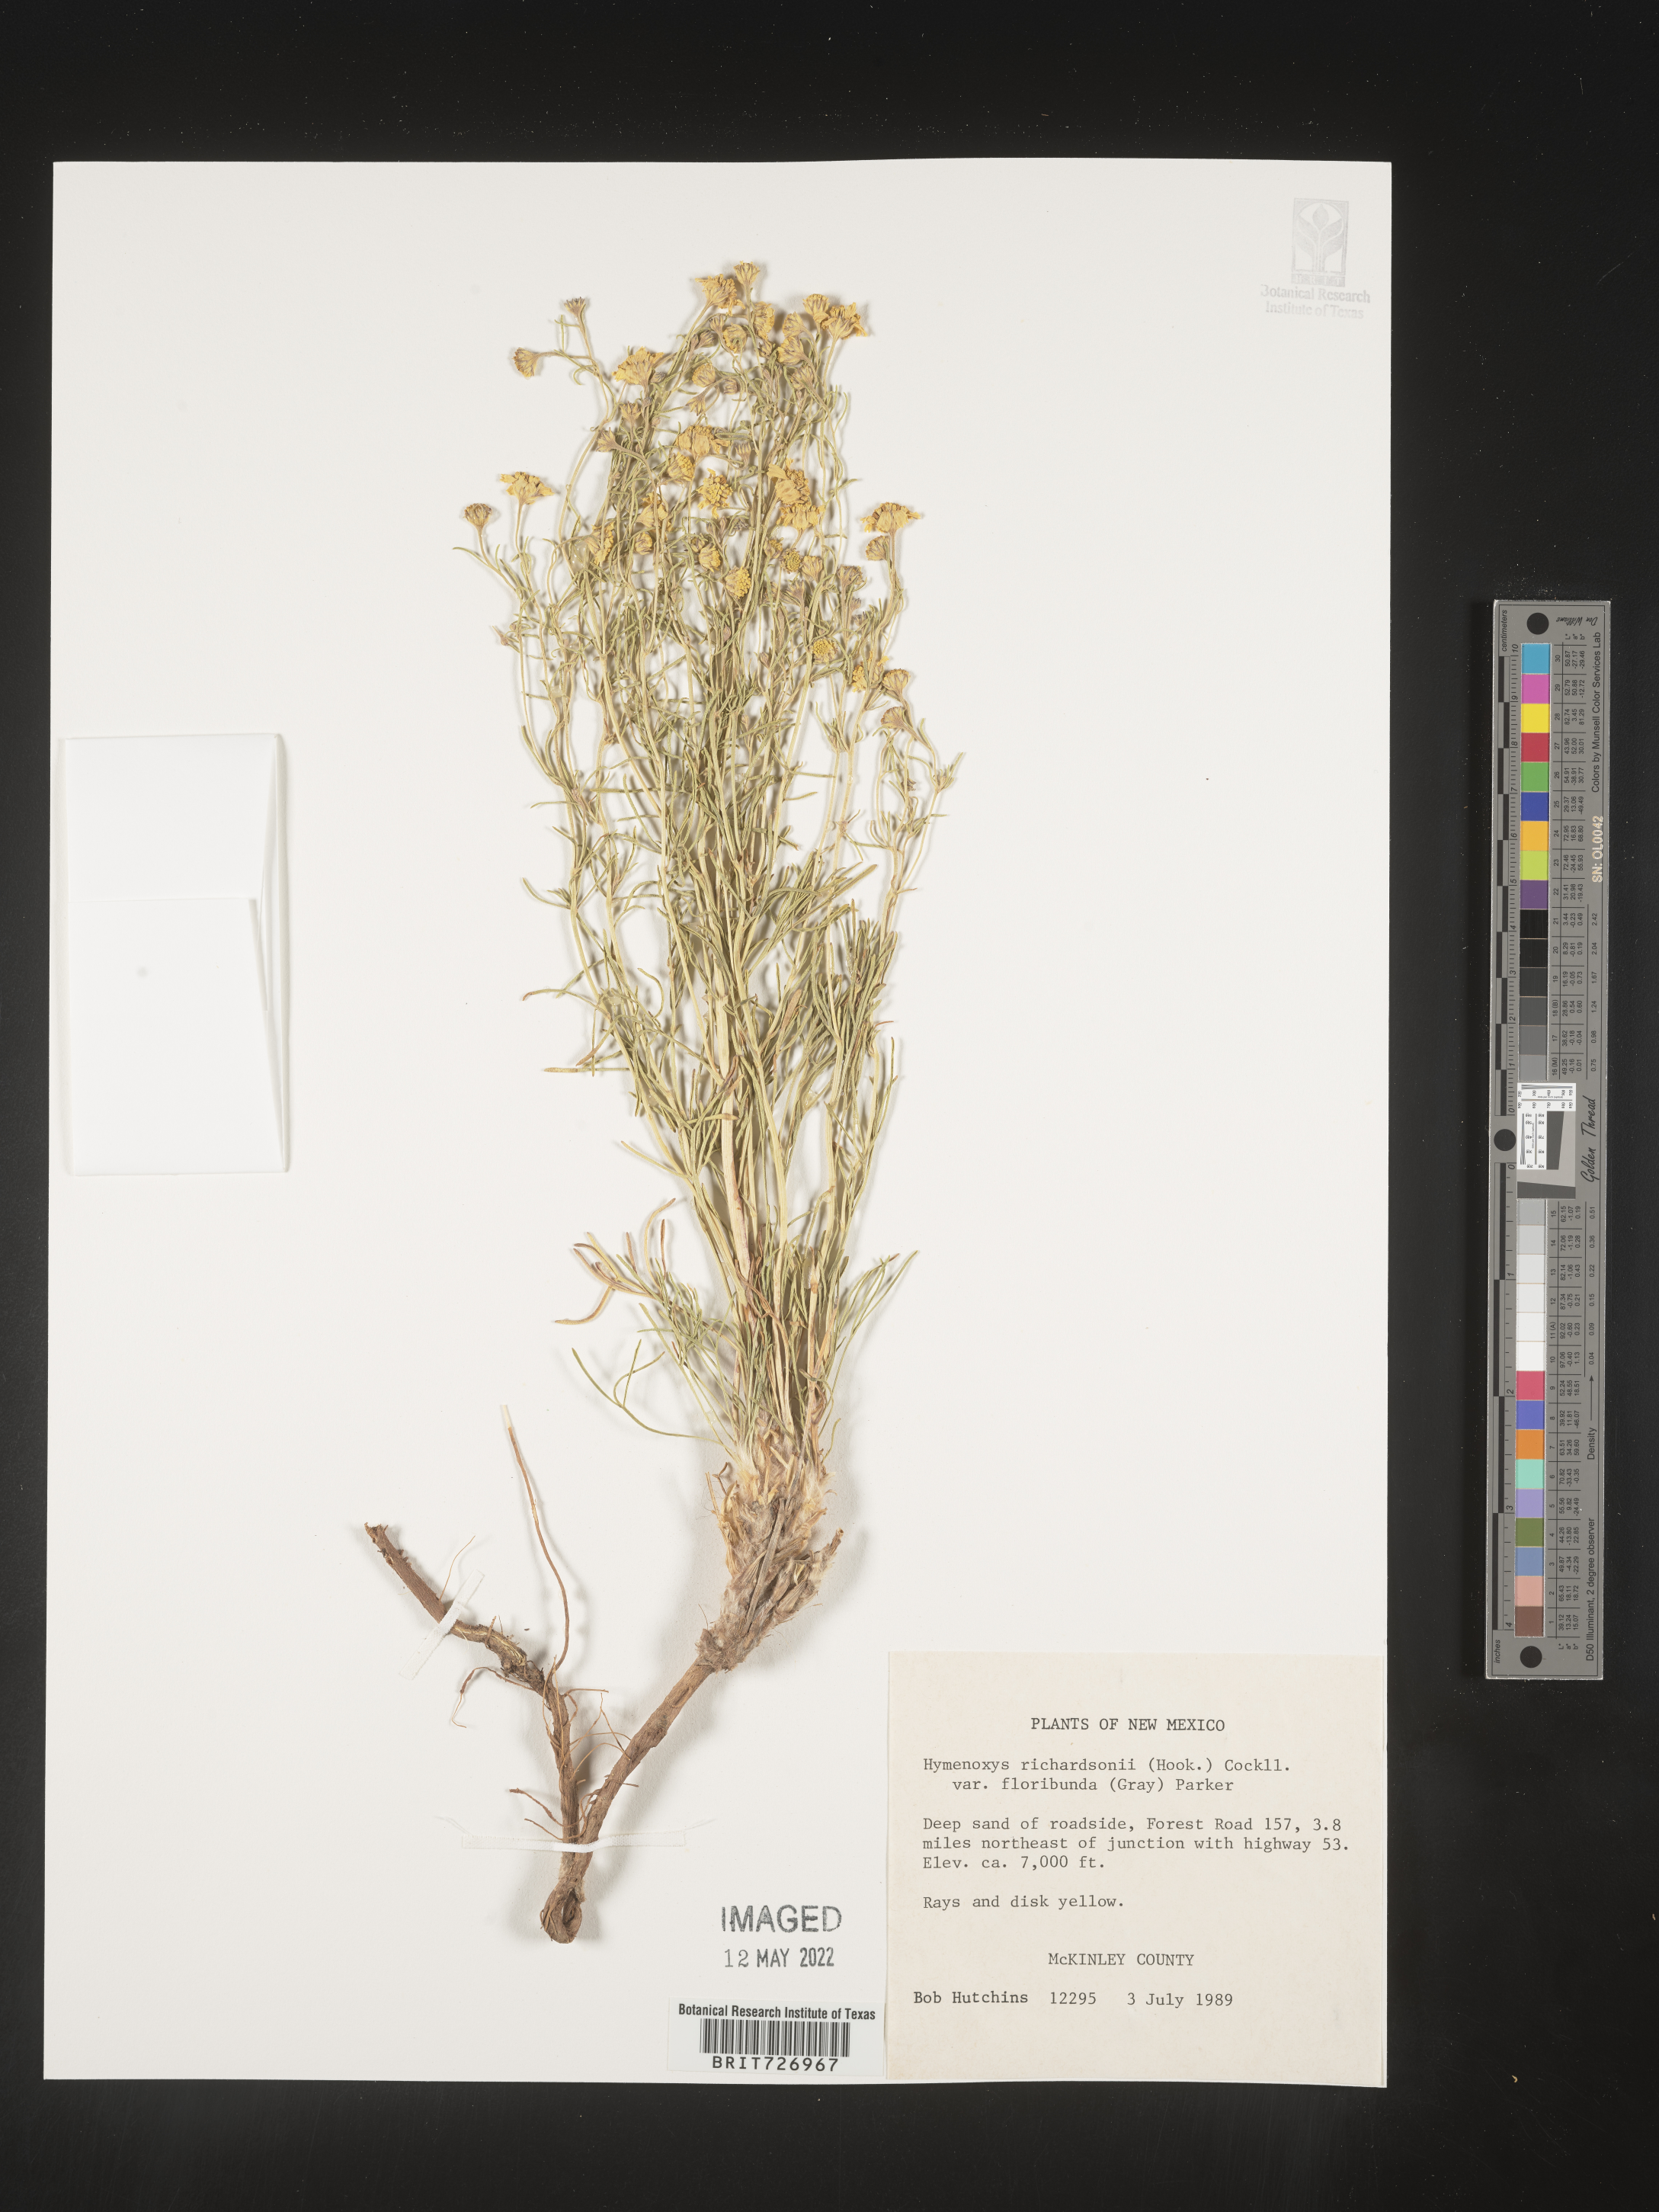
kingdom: Plantae
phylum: Tracheophyta
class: Magnoliopsida
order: Asterales
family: Asteraceae
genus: Hymenoxys
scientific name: Hymenoxys richardsonii
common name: Pingue rubberweed
